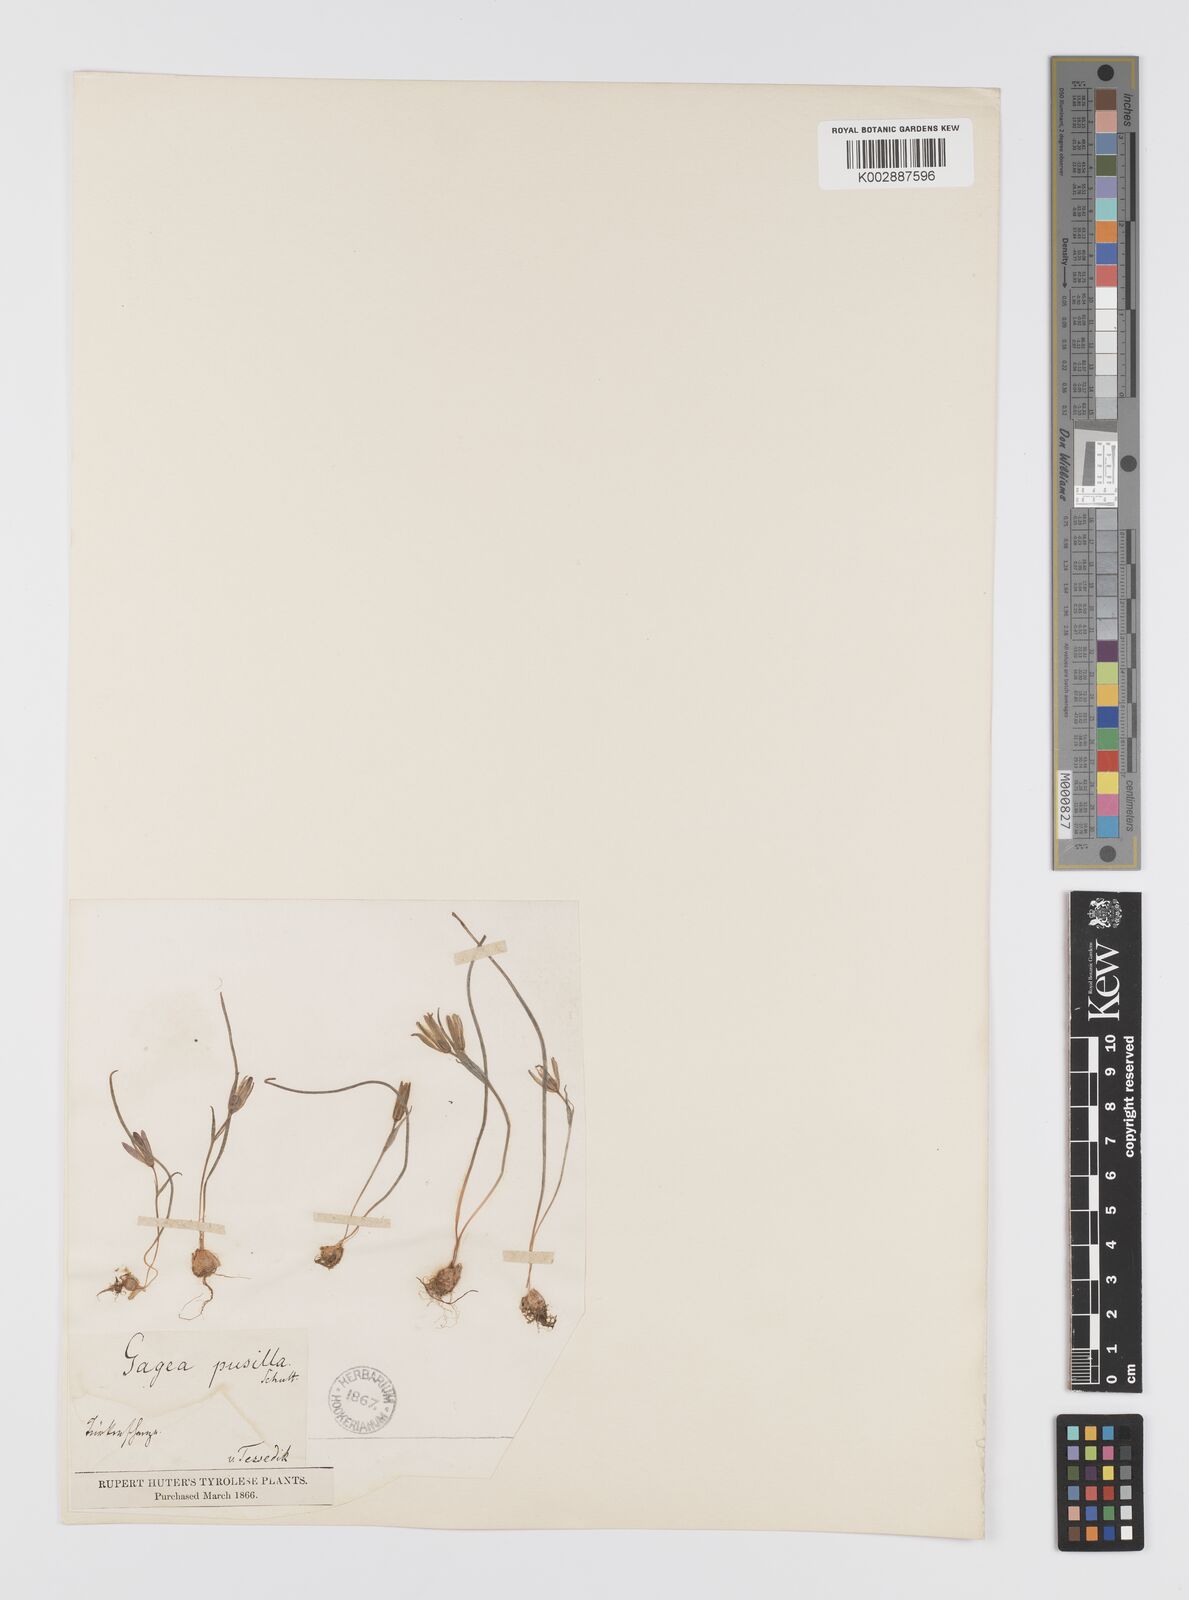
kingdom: Plantae
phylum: Tracheophyta
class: Liliopsida
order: Liliales
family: Liliaceae
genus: Gagea
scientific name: Gagea pusilla
